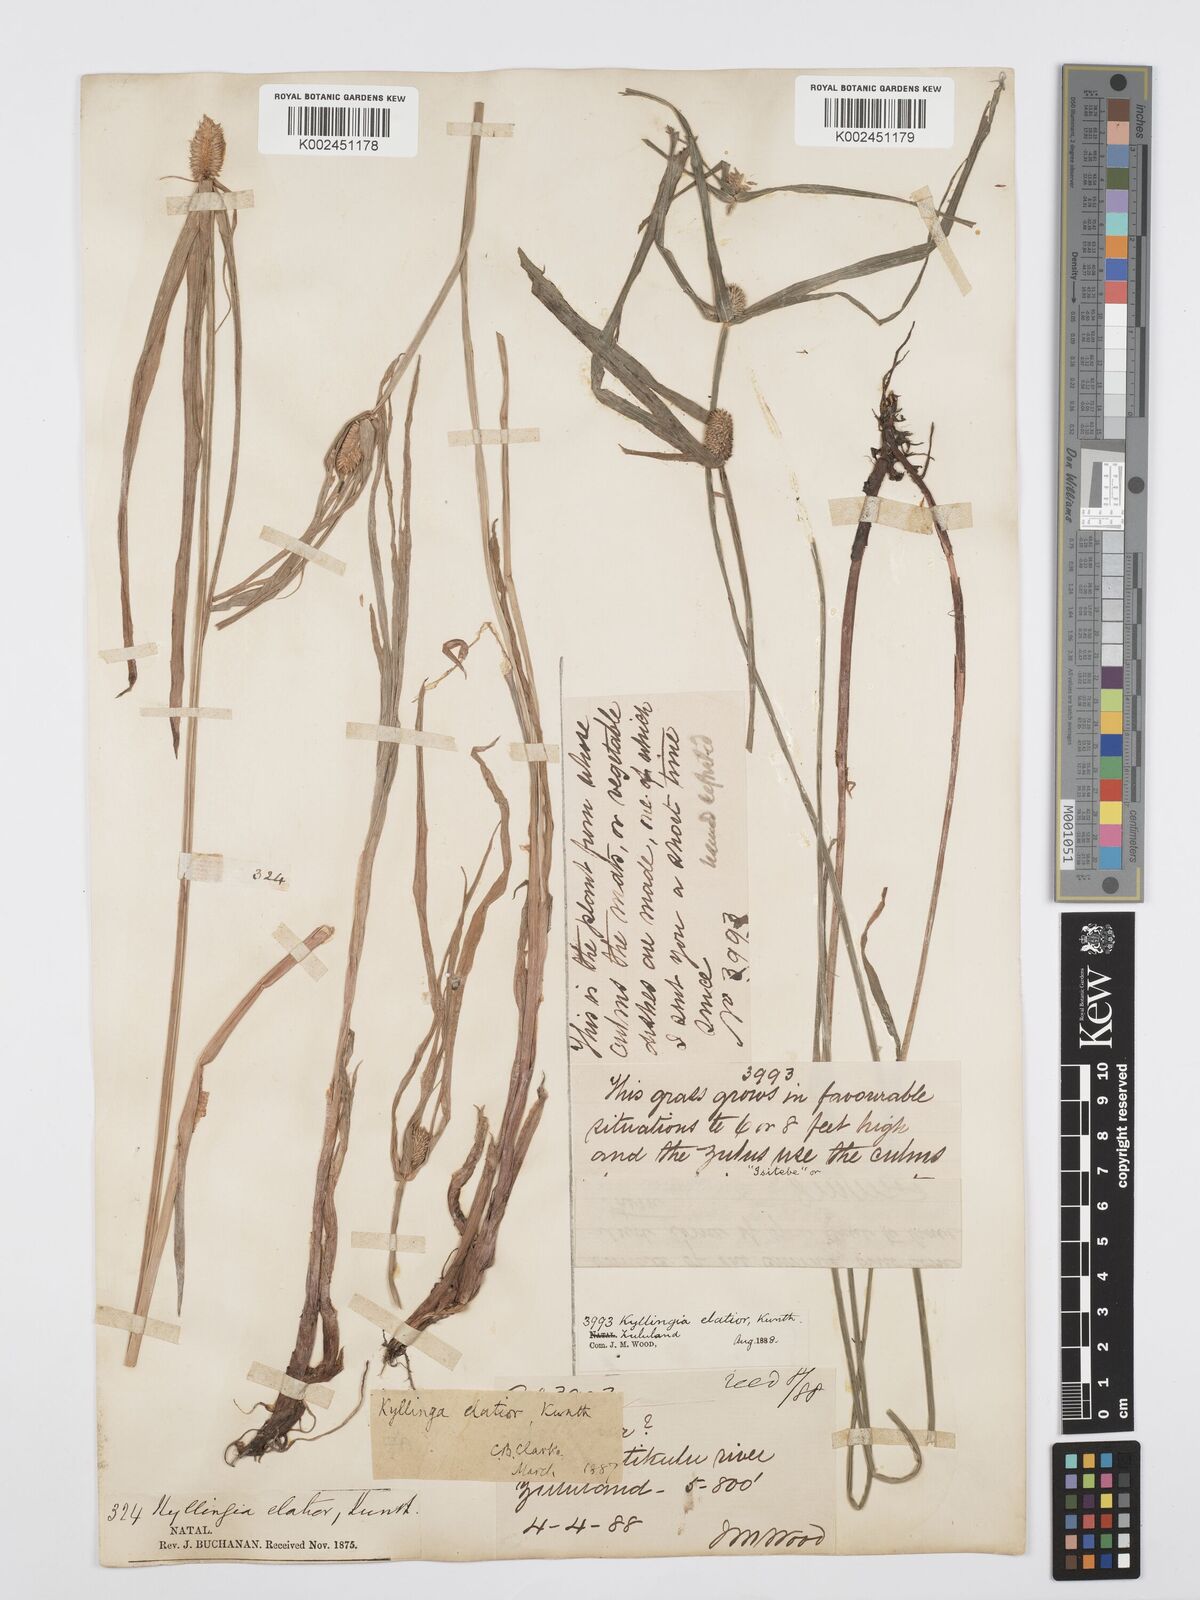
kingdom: Plantae
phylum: Tracheophyta
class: Liliopsida
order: Poales
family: Cyperaceae
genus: Cyperus
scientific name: Cyperus
